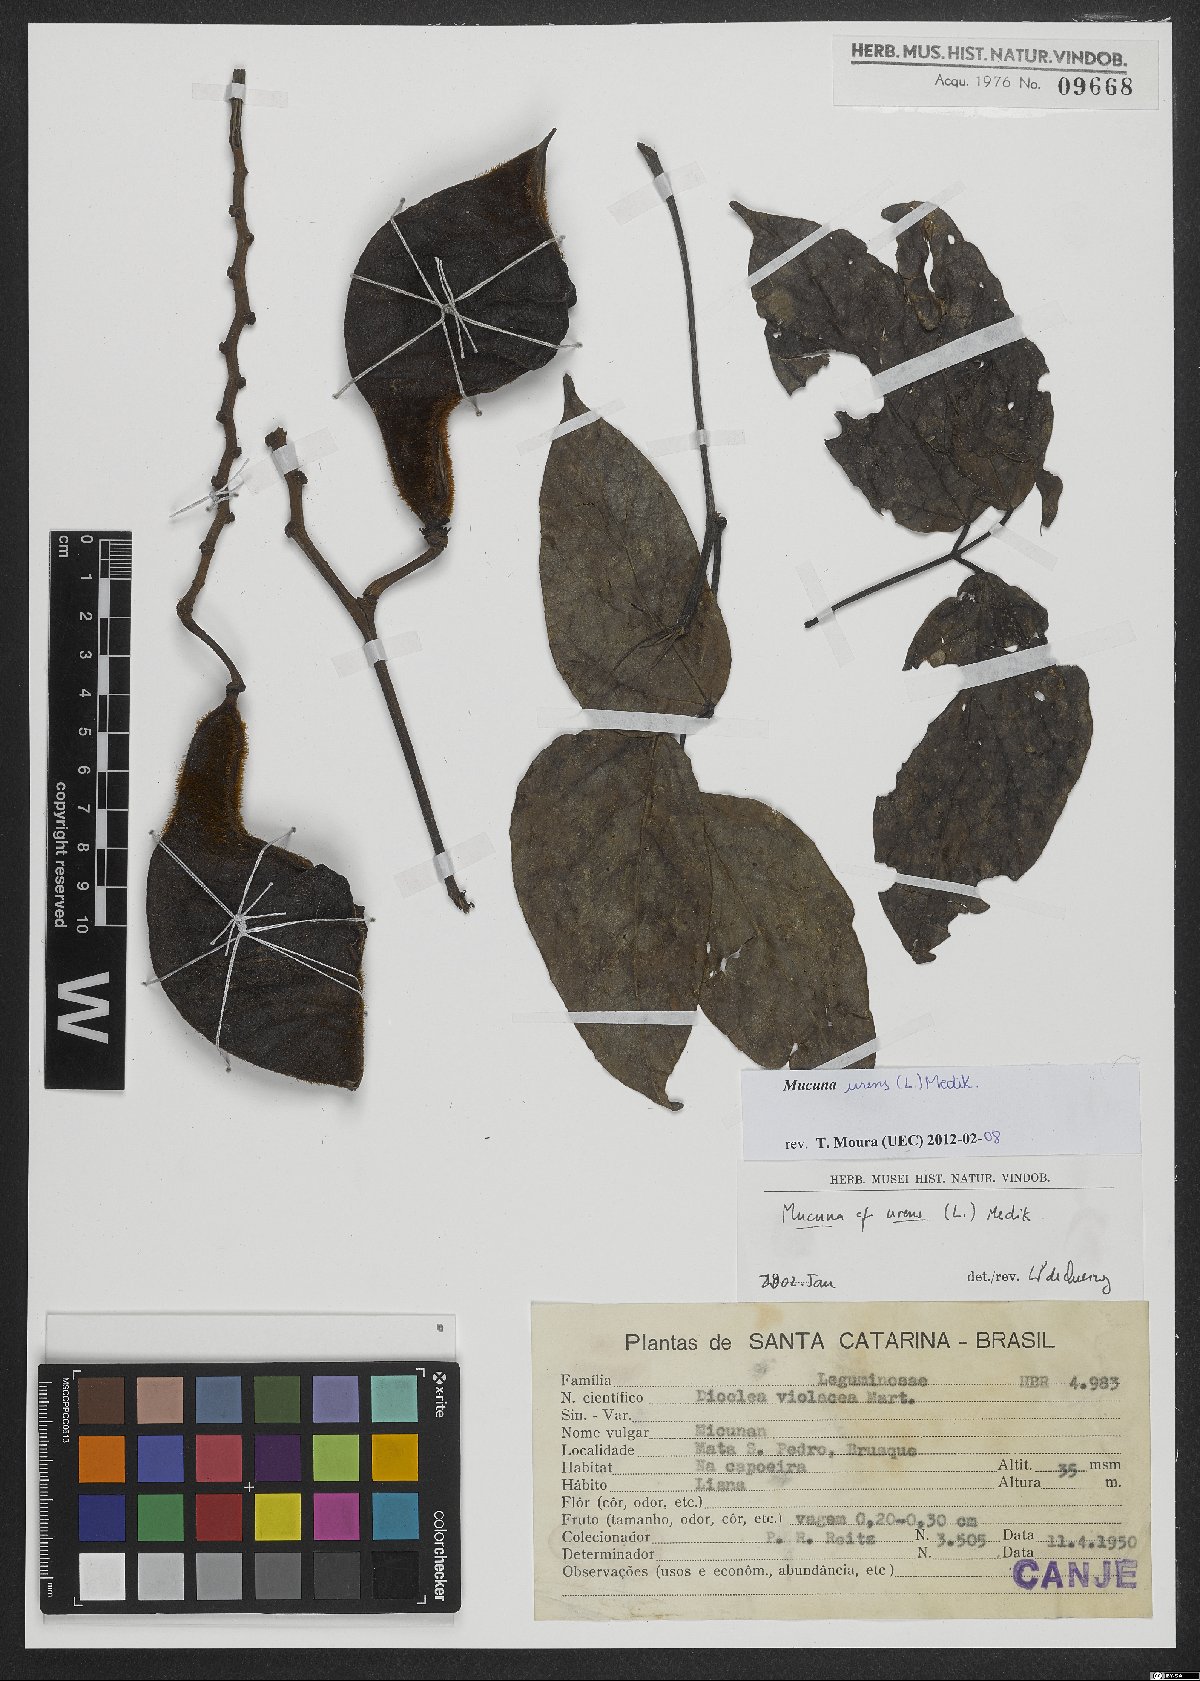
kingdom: Plantae
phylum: Tracheophyta
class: Magnoliopsida
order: Fabales
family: Fabaceae
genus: Mucuna
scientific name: Mucuna urens
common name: Red hamburger bean
